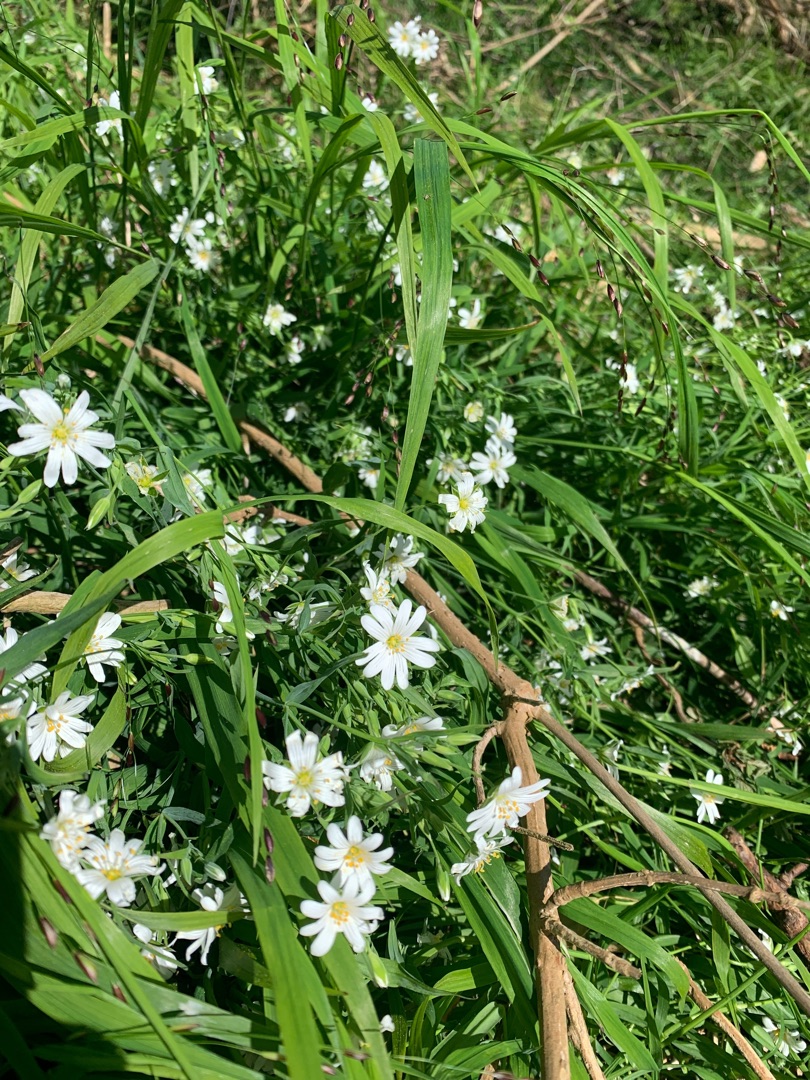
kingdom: Plantae
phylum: Tracheophyta
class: Magnoliopsida
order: Caryophyllales
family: Caryophyllaceae
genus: Rabelera
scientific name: Rabelera holostea
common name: Stor fladstjerne
